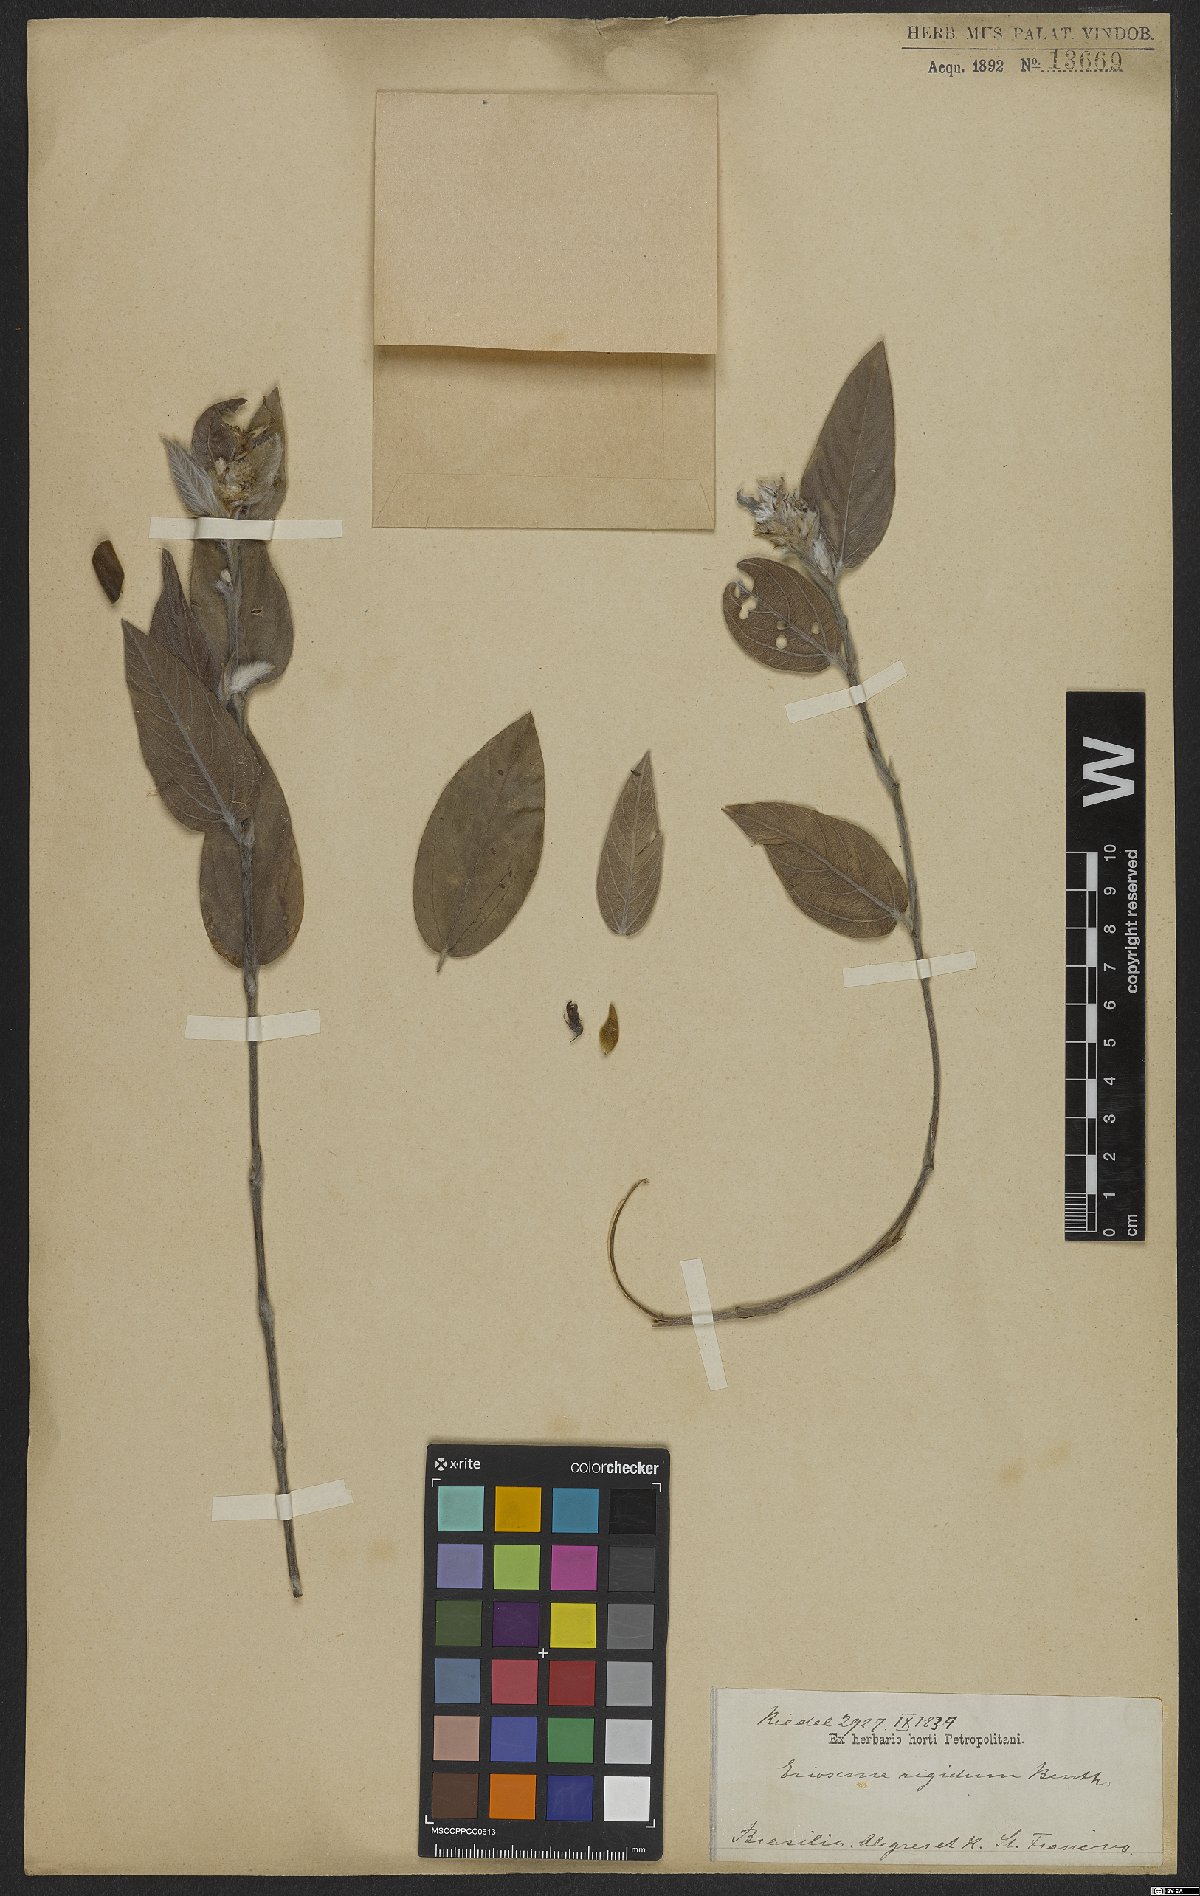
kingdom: Plantae
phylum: Tracheophyta
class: Magnoliopsida
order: Fabales
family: Fabaceae
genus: Eriosema
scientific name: Eriosema rigidum
